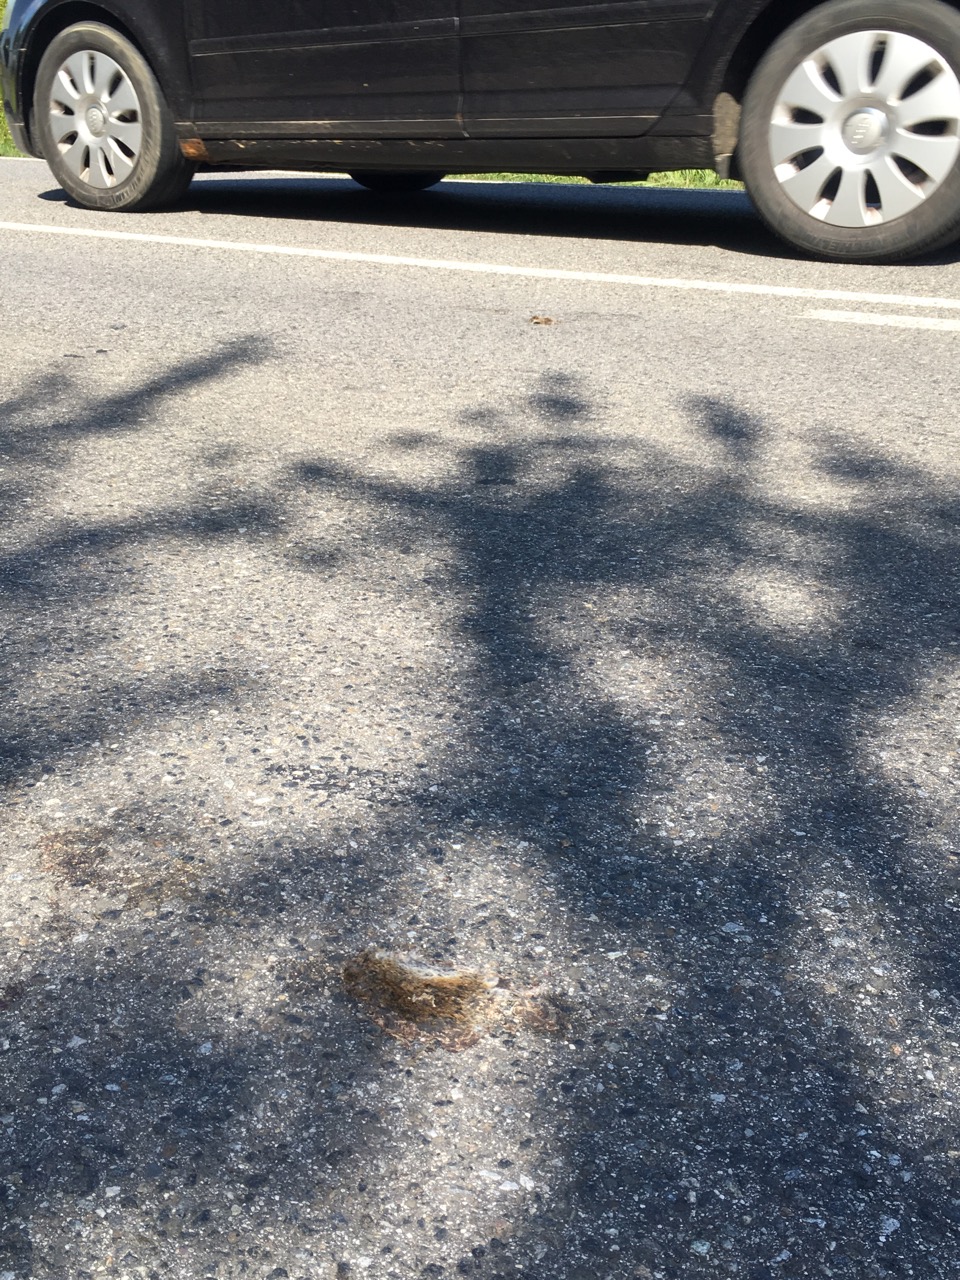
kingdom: Animalia
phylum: Chordata
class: Mammalia
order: Rodentia
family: Cricetidae
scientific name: Cricetidae
